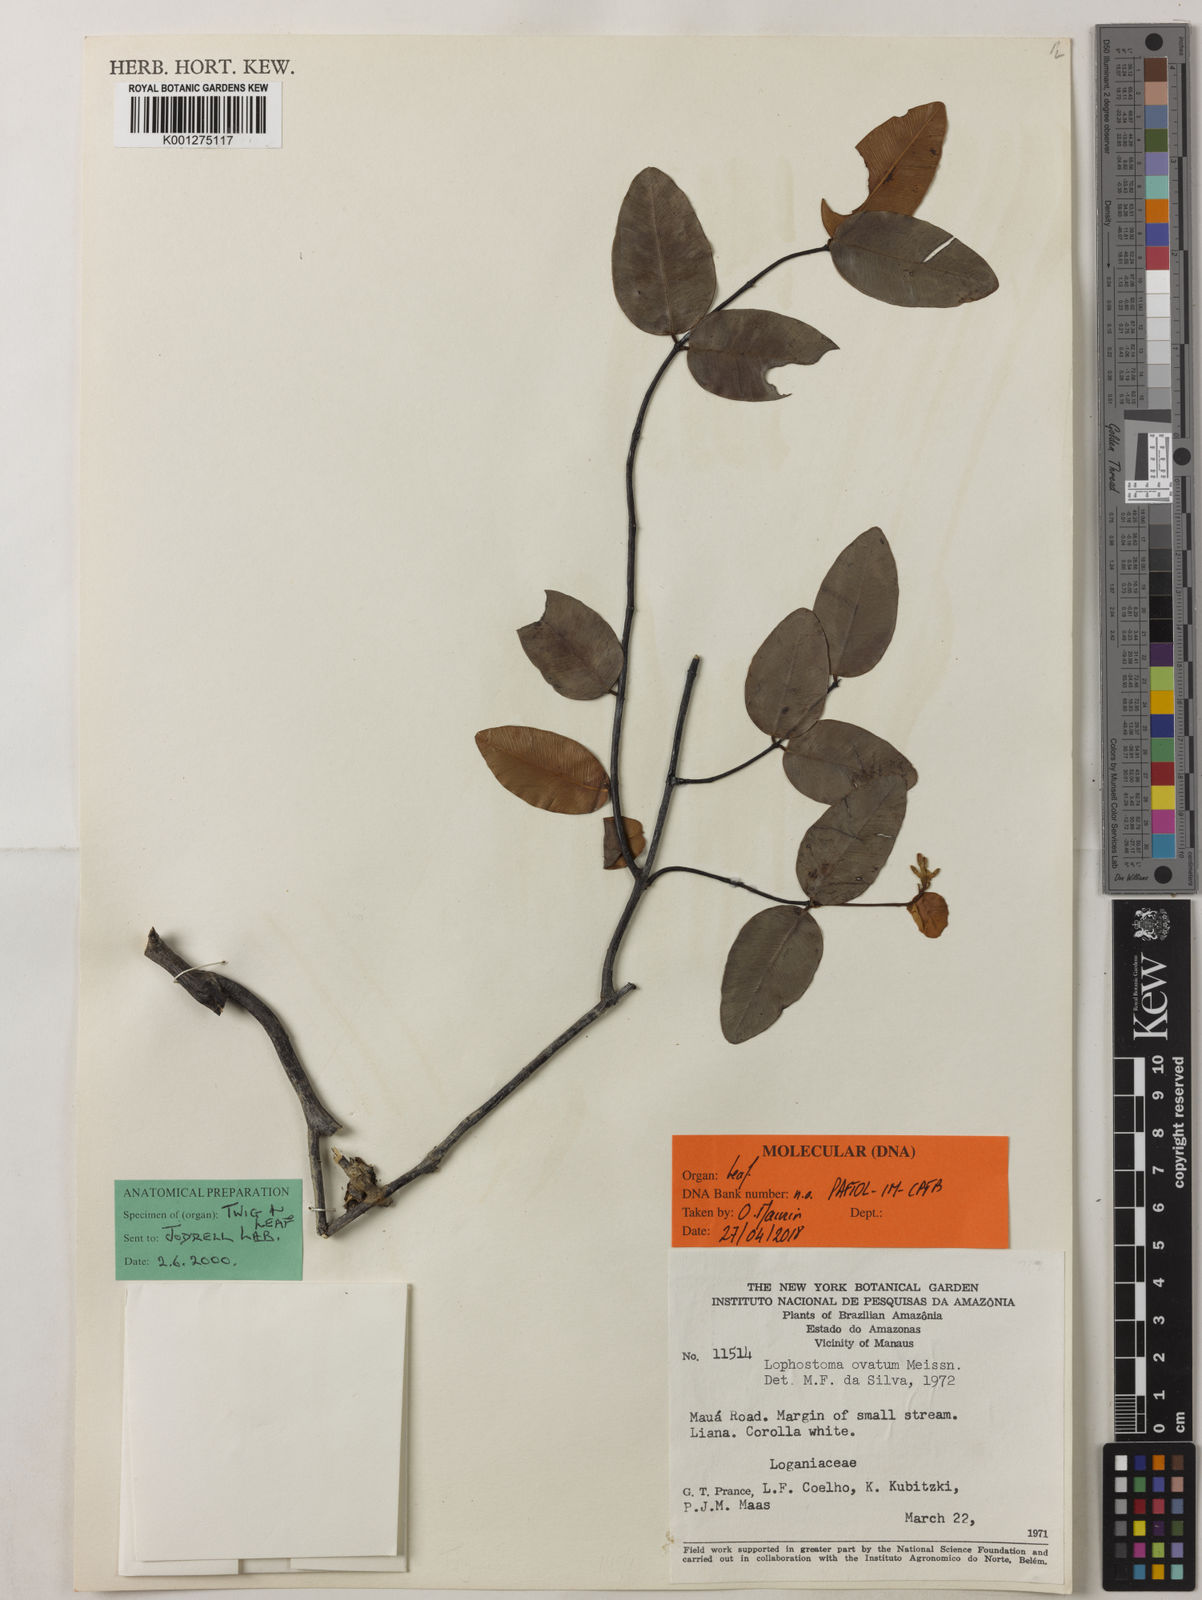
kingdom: Plantae
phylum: Tracheophyta
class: Magnoliopsida
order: Malvales
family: Thymelaeaceae
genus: Lophostoma
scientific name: Lophostoma ovatum
